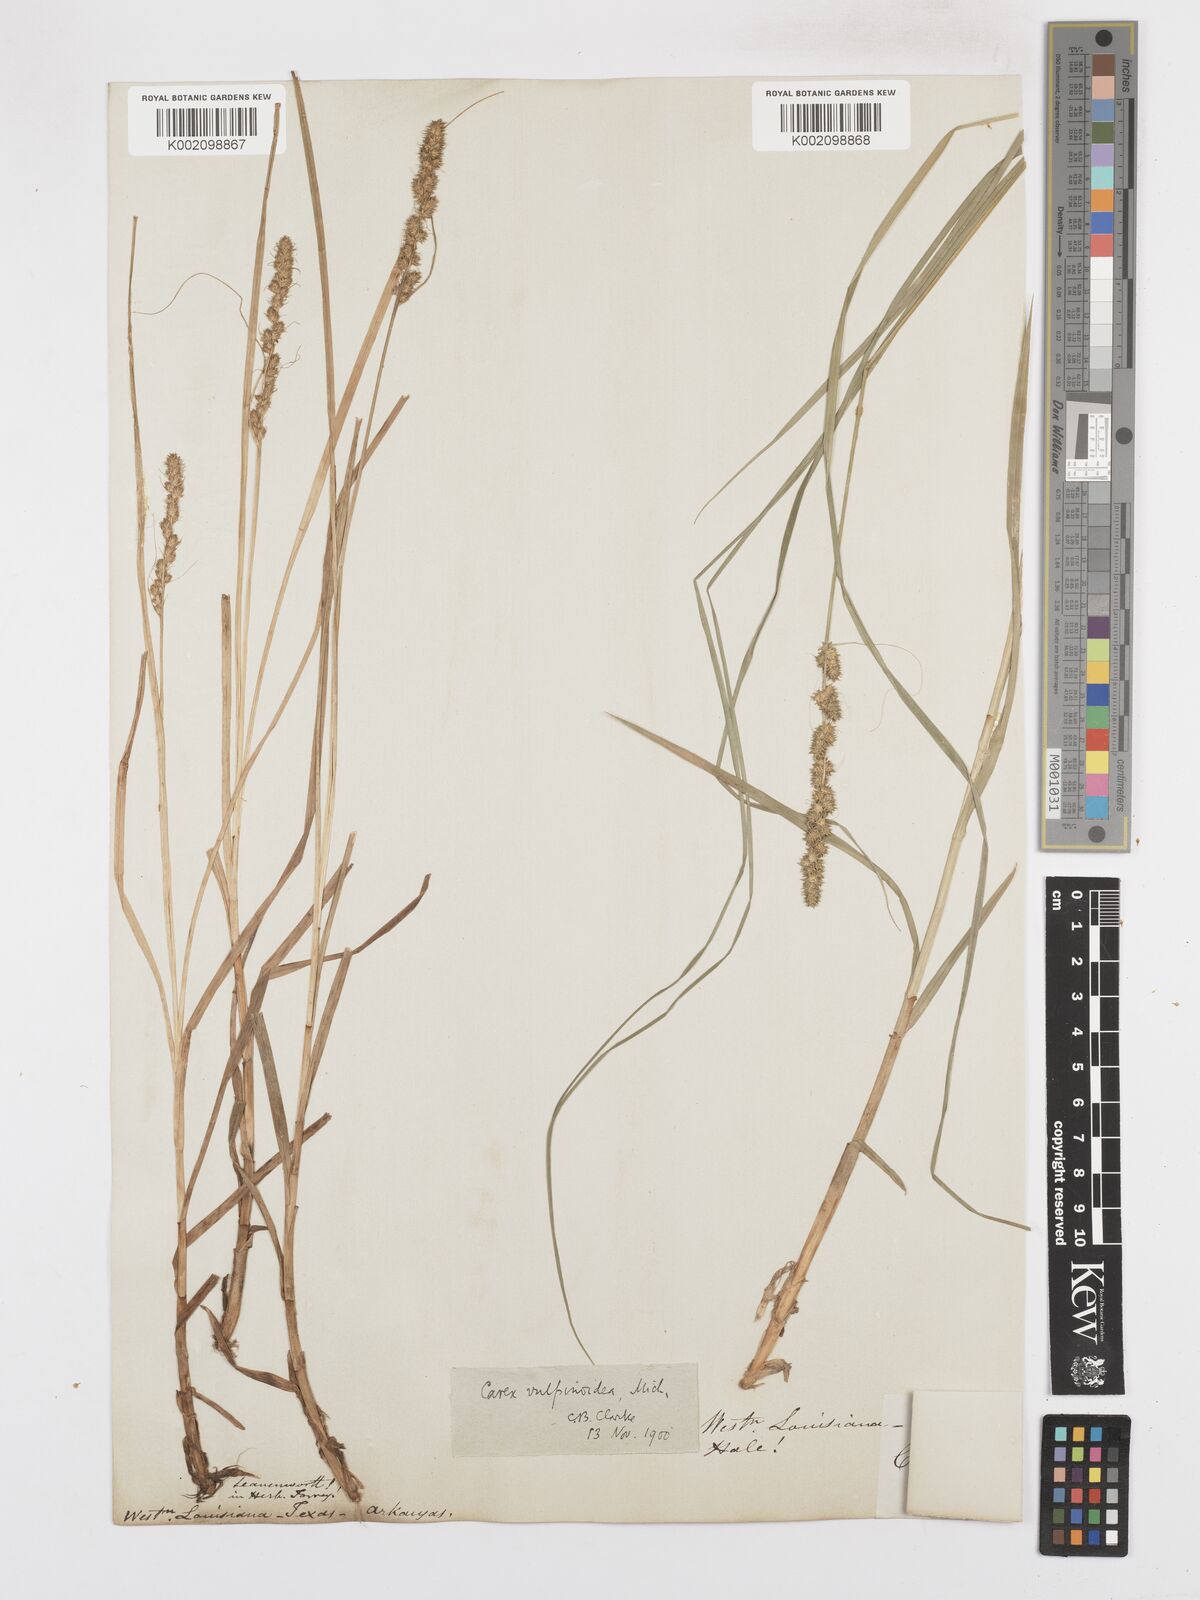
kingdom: Plantae
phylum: Tracheophyta
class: Liliopsida
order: Poales
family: Cyperaceae
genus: Carex
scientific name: Carex vulpinoidea
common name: American fox-sedge
